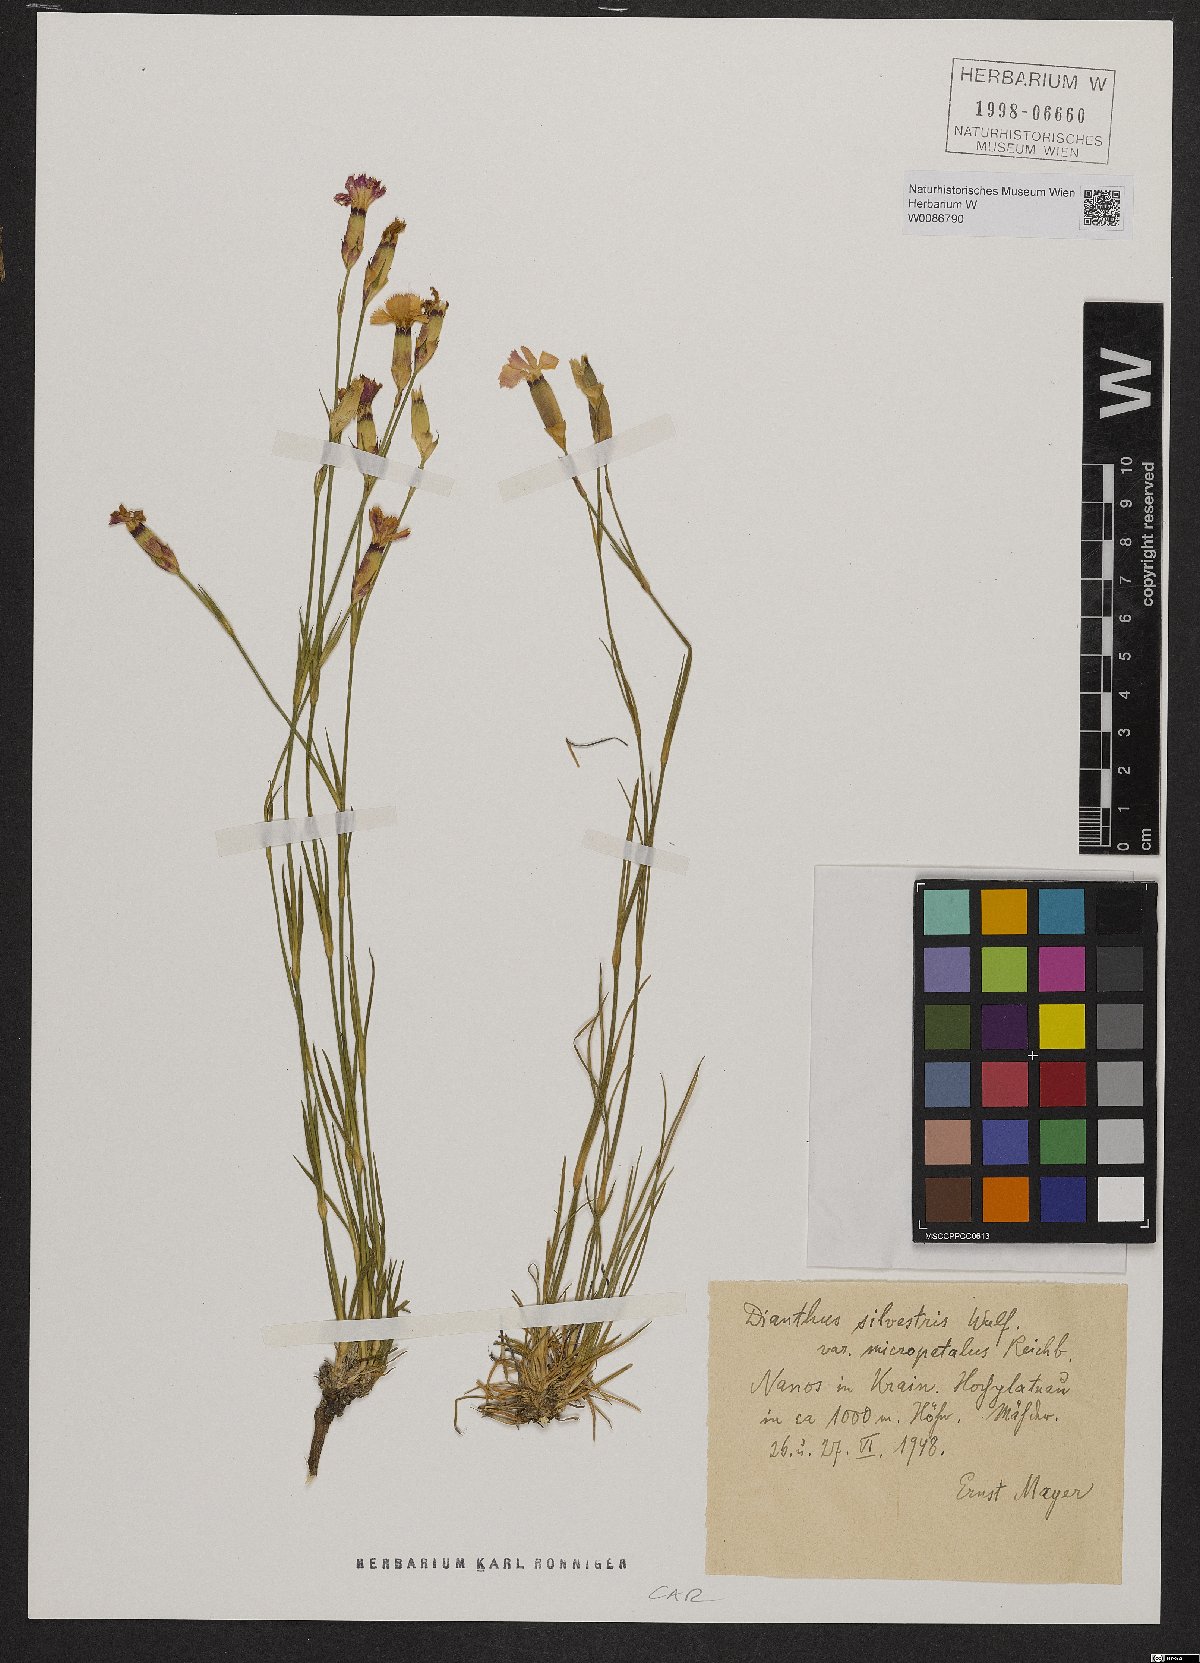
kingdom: Plantae
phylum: Tracheophyta
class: Magnoliopsida
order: Caryophyllales
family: Caryophyllaceae
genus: Dianthus
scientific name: Dianthus sylvestris
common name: Wood pink
